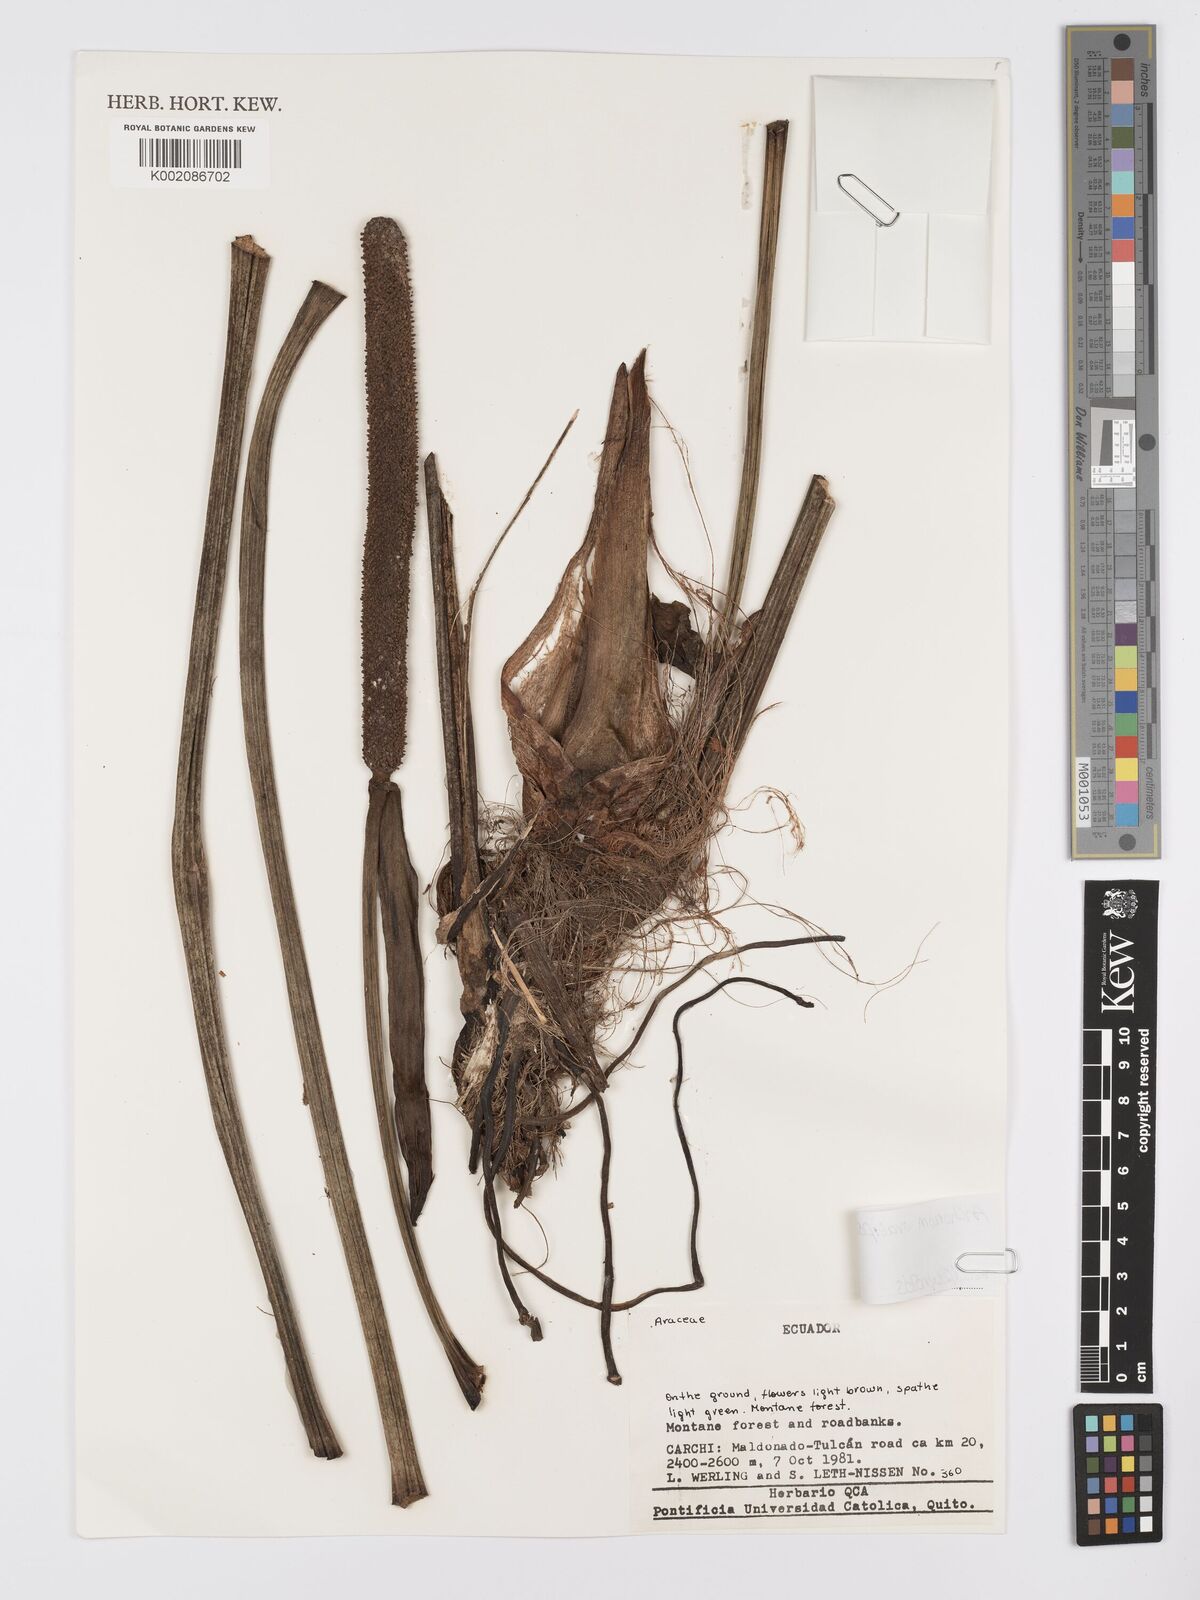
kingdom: Plantae
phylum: Tracheophyta
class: Liliopsida
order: Alismatales
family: Araceae
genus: Anthurium
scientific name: Anthurium ovatifolium
